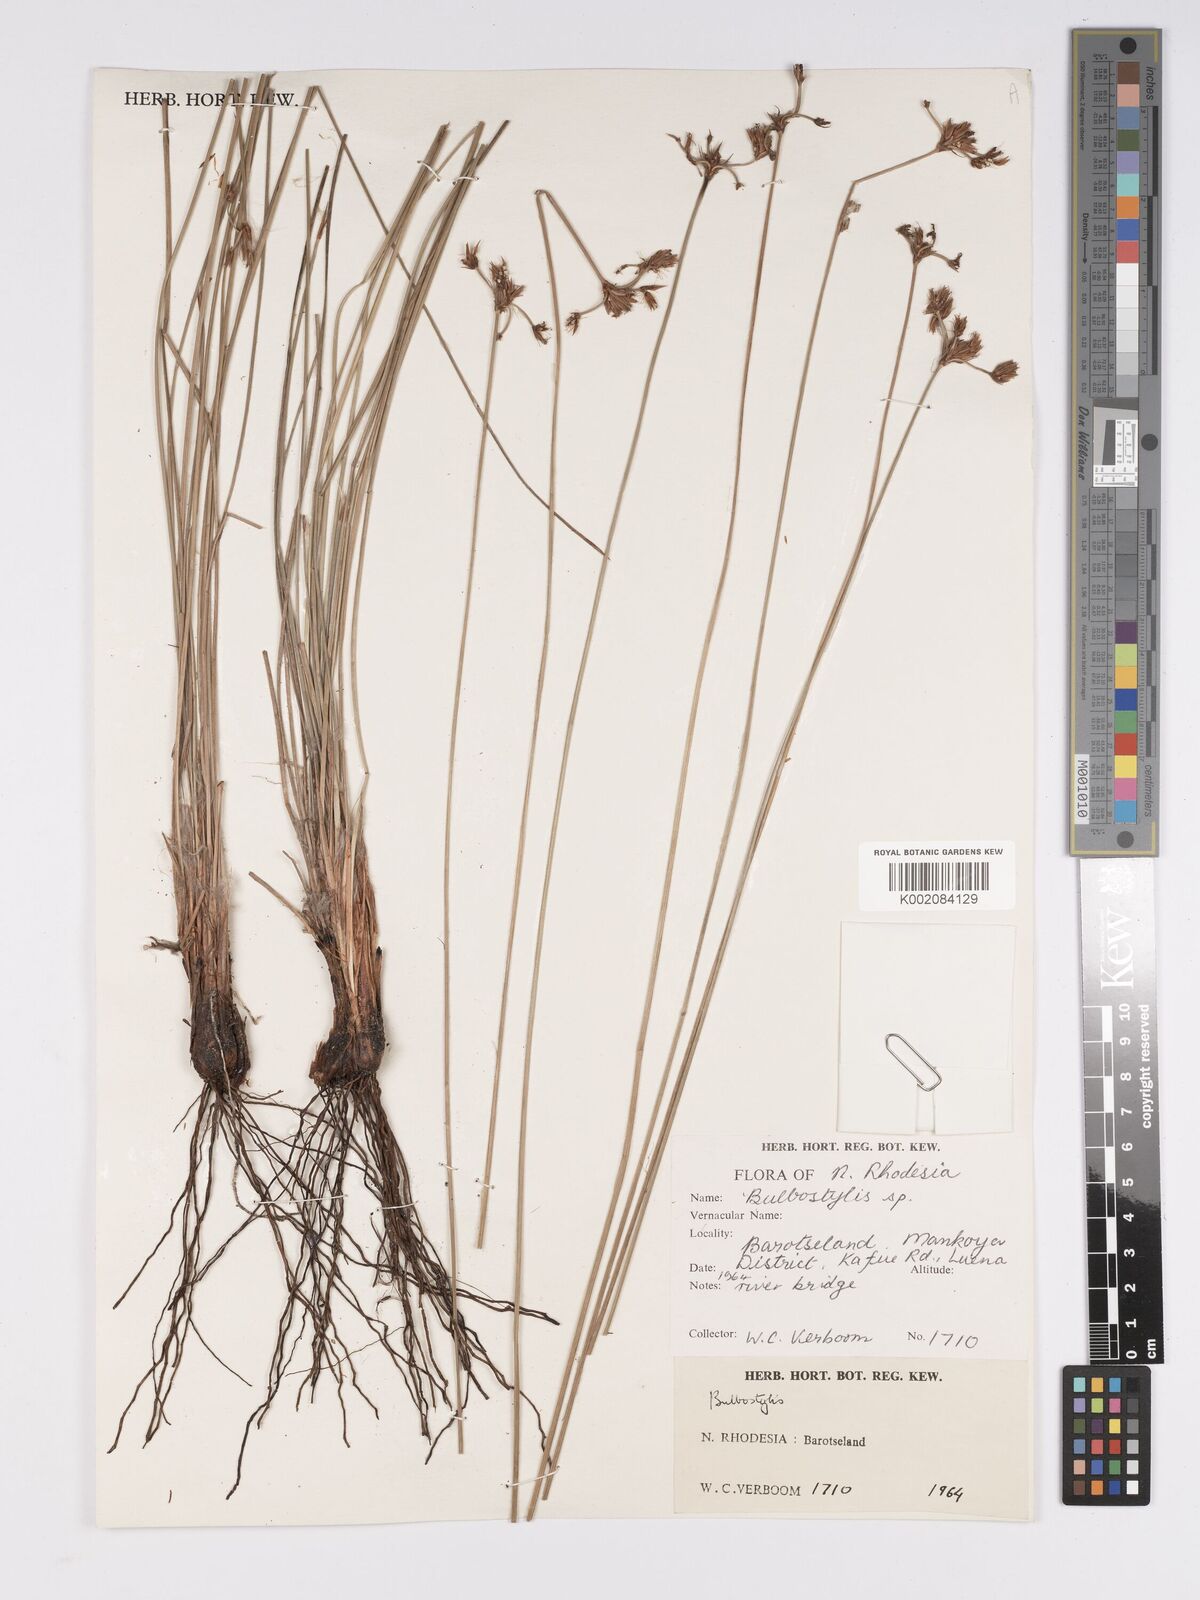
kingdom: Plantae
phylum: Tracheophyta
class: Liliopsida
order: Poales
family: Cyperaceae
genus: Bulbostylis
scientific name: Bulbostylis
